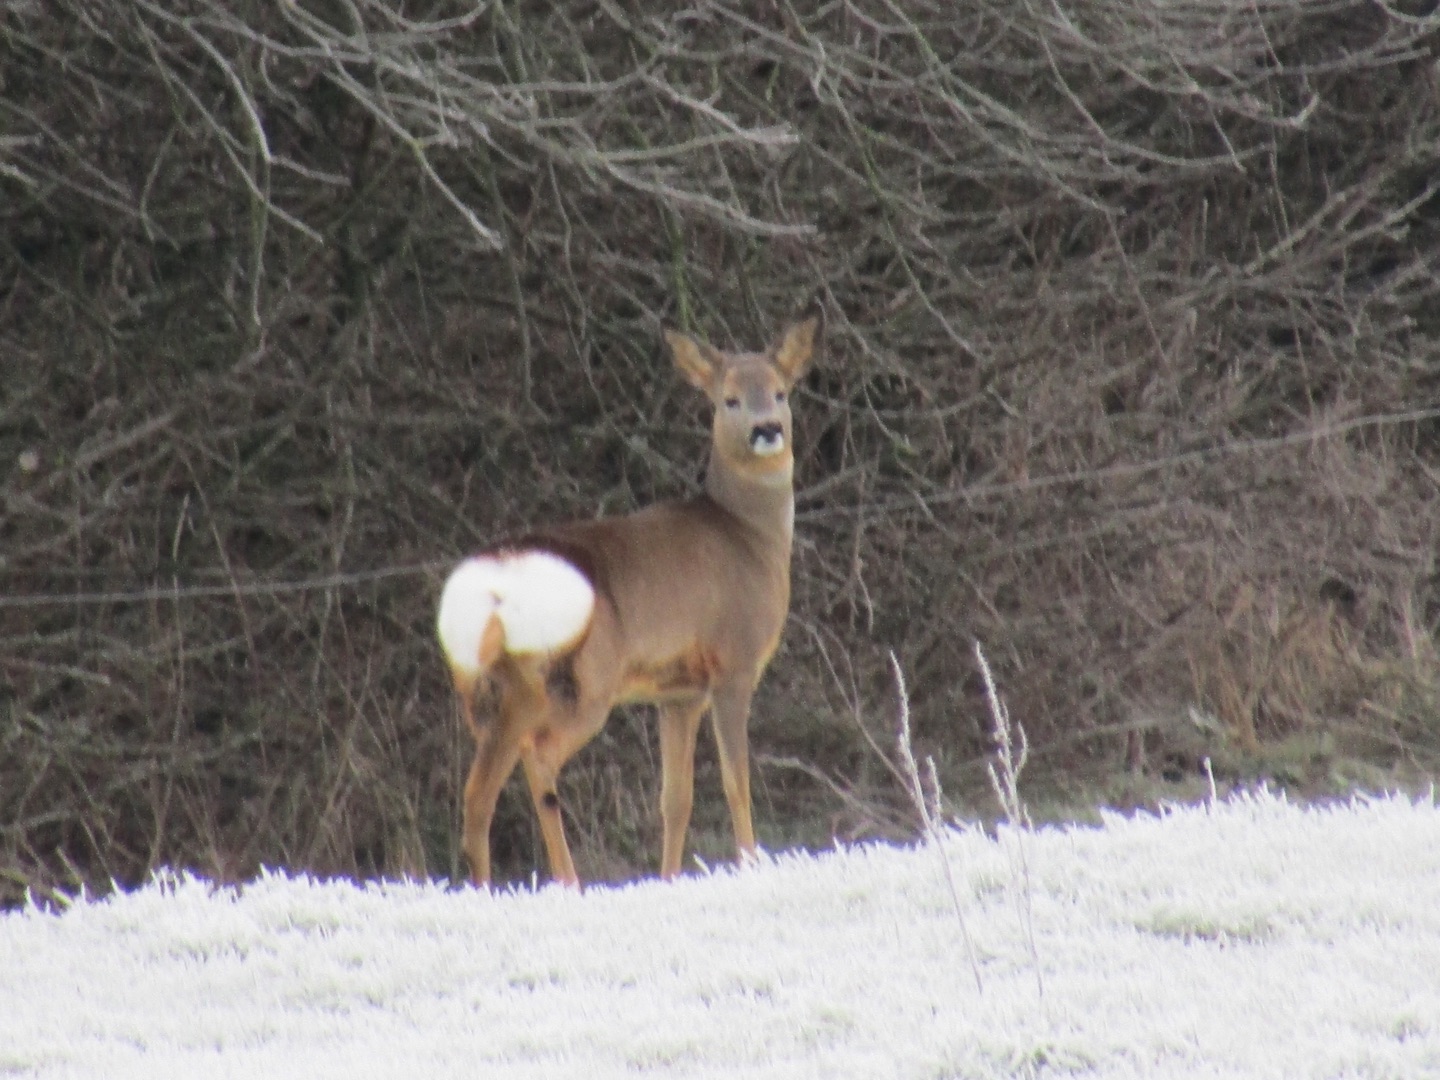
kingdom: Animalia
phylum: Chordata
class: Mammalia
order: Artiodactyla
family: Cervidae
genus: Capreolus
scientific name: Capreolus capreolus
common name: Rådyr
